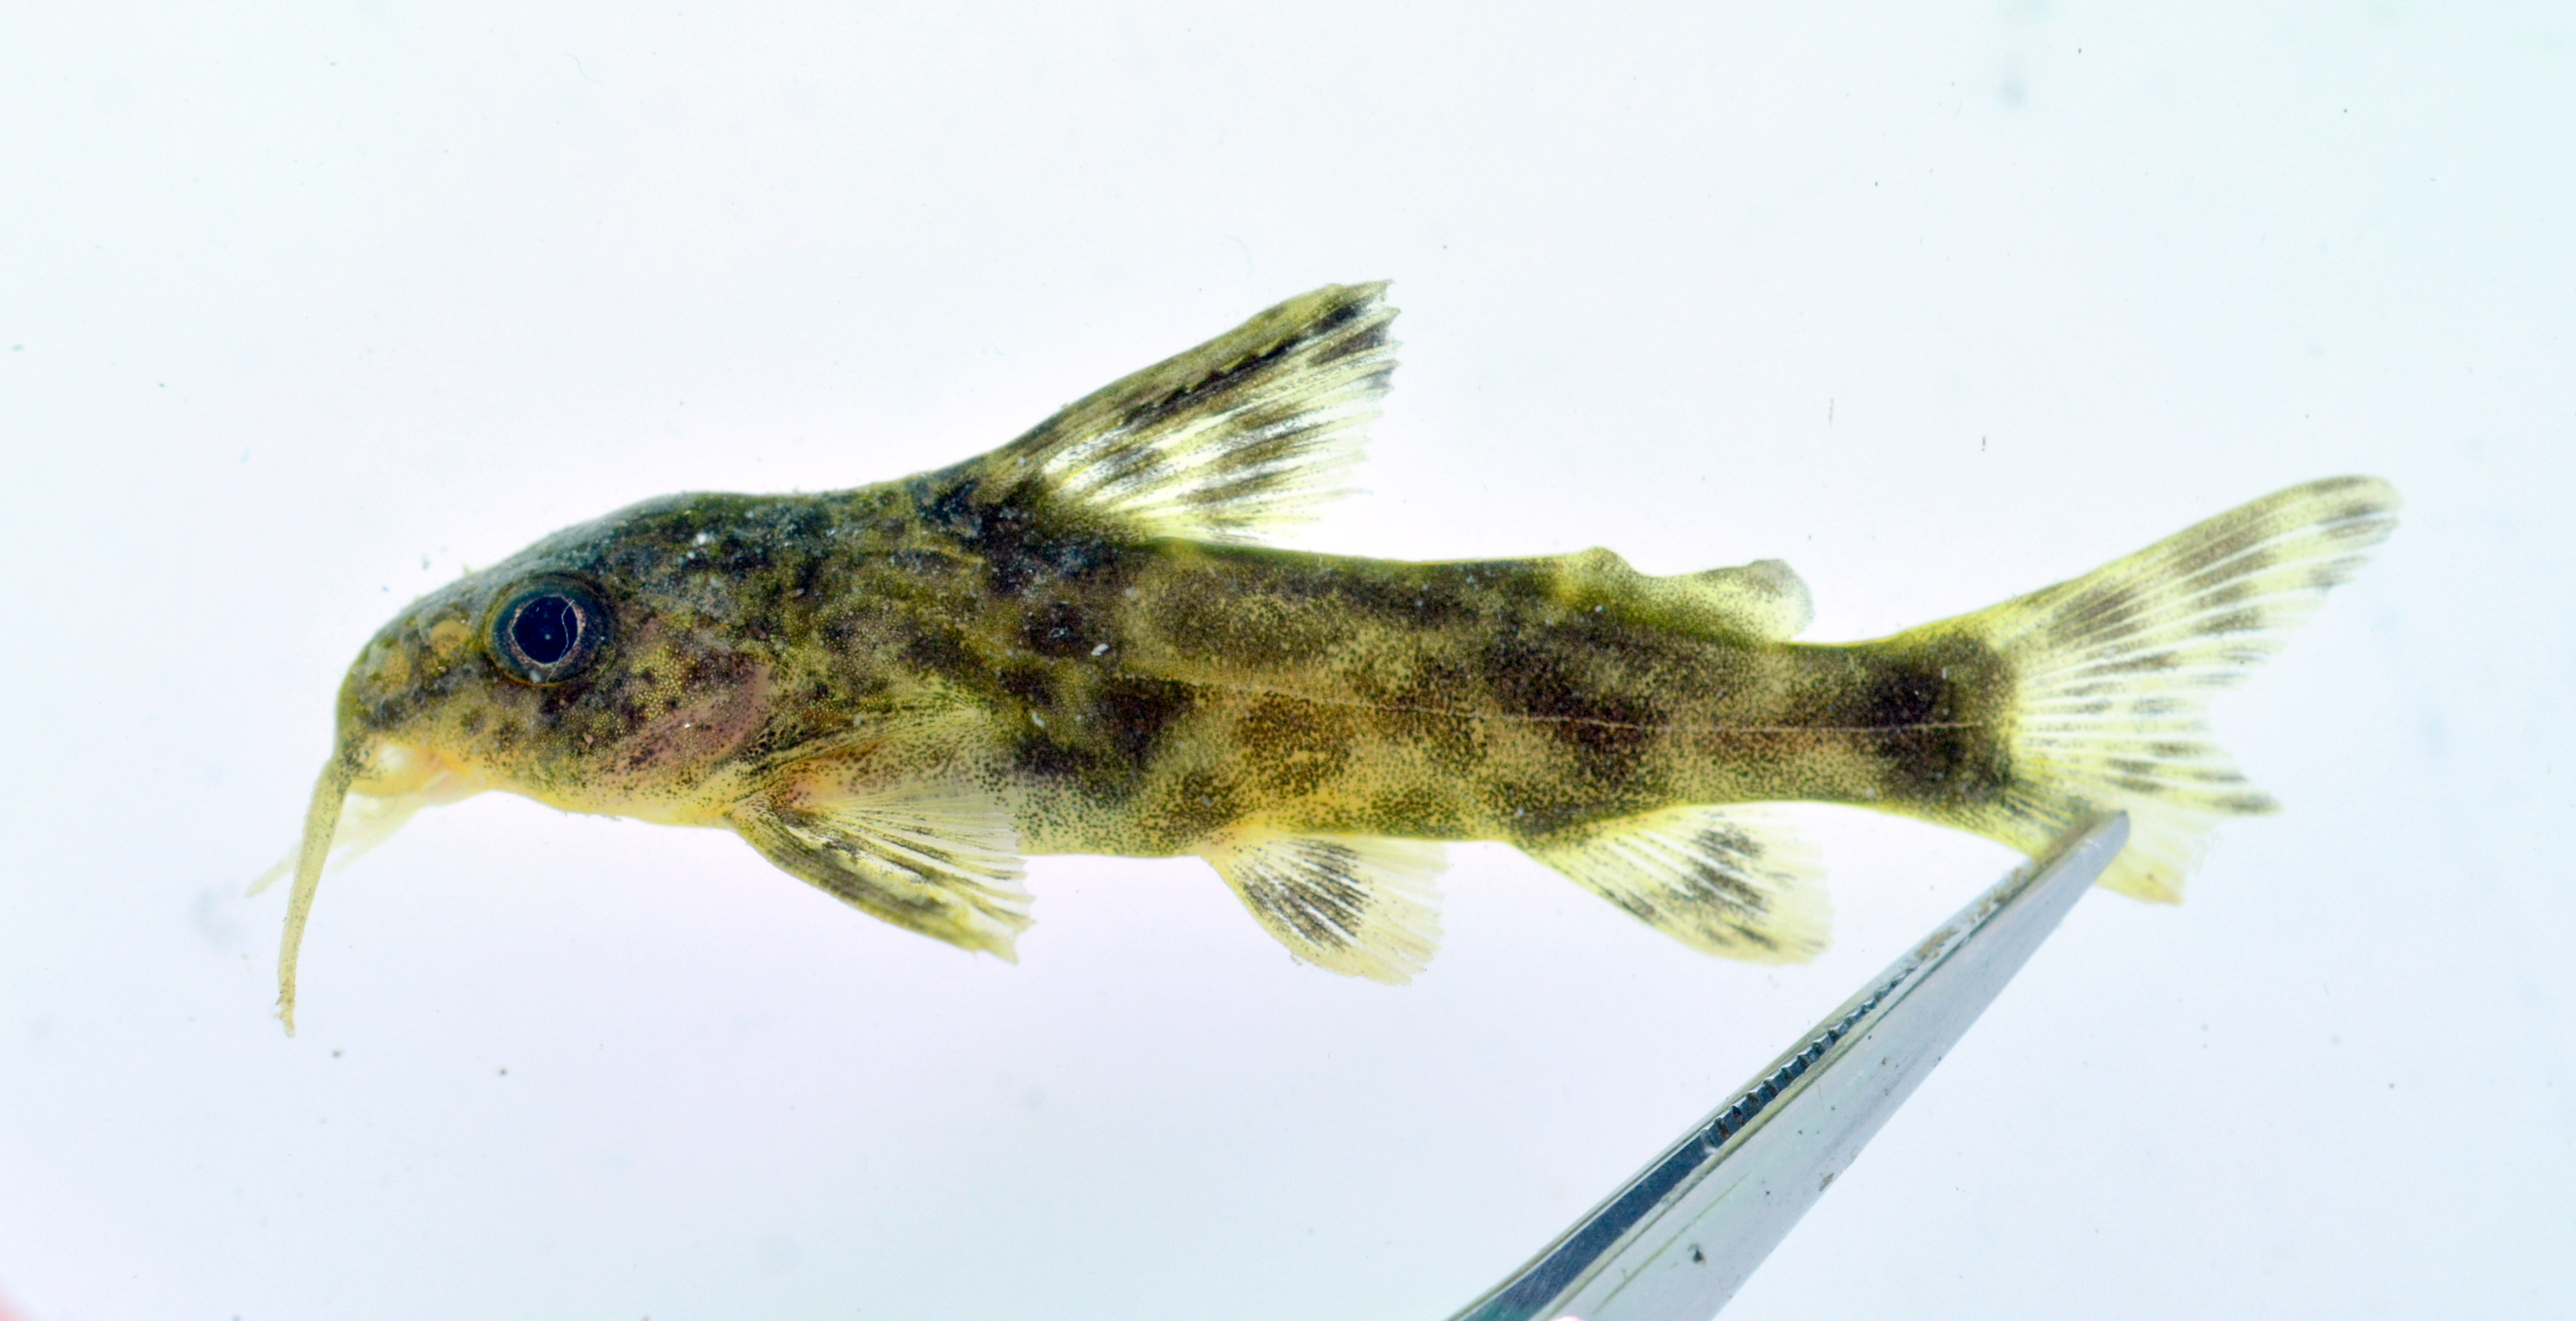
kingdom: Animalia
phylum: Chordata
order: Siluriformes
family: Mochokidae
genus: Synodontis
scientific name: Synodontis
